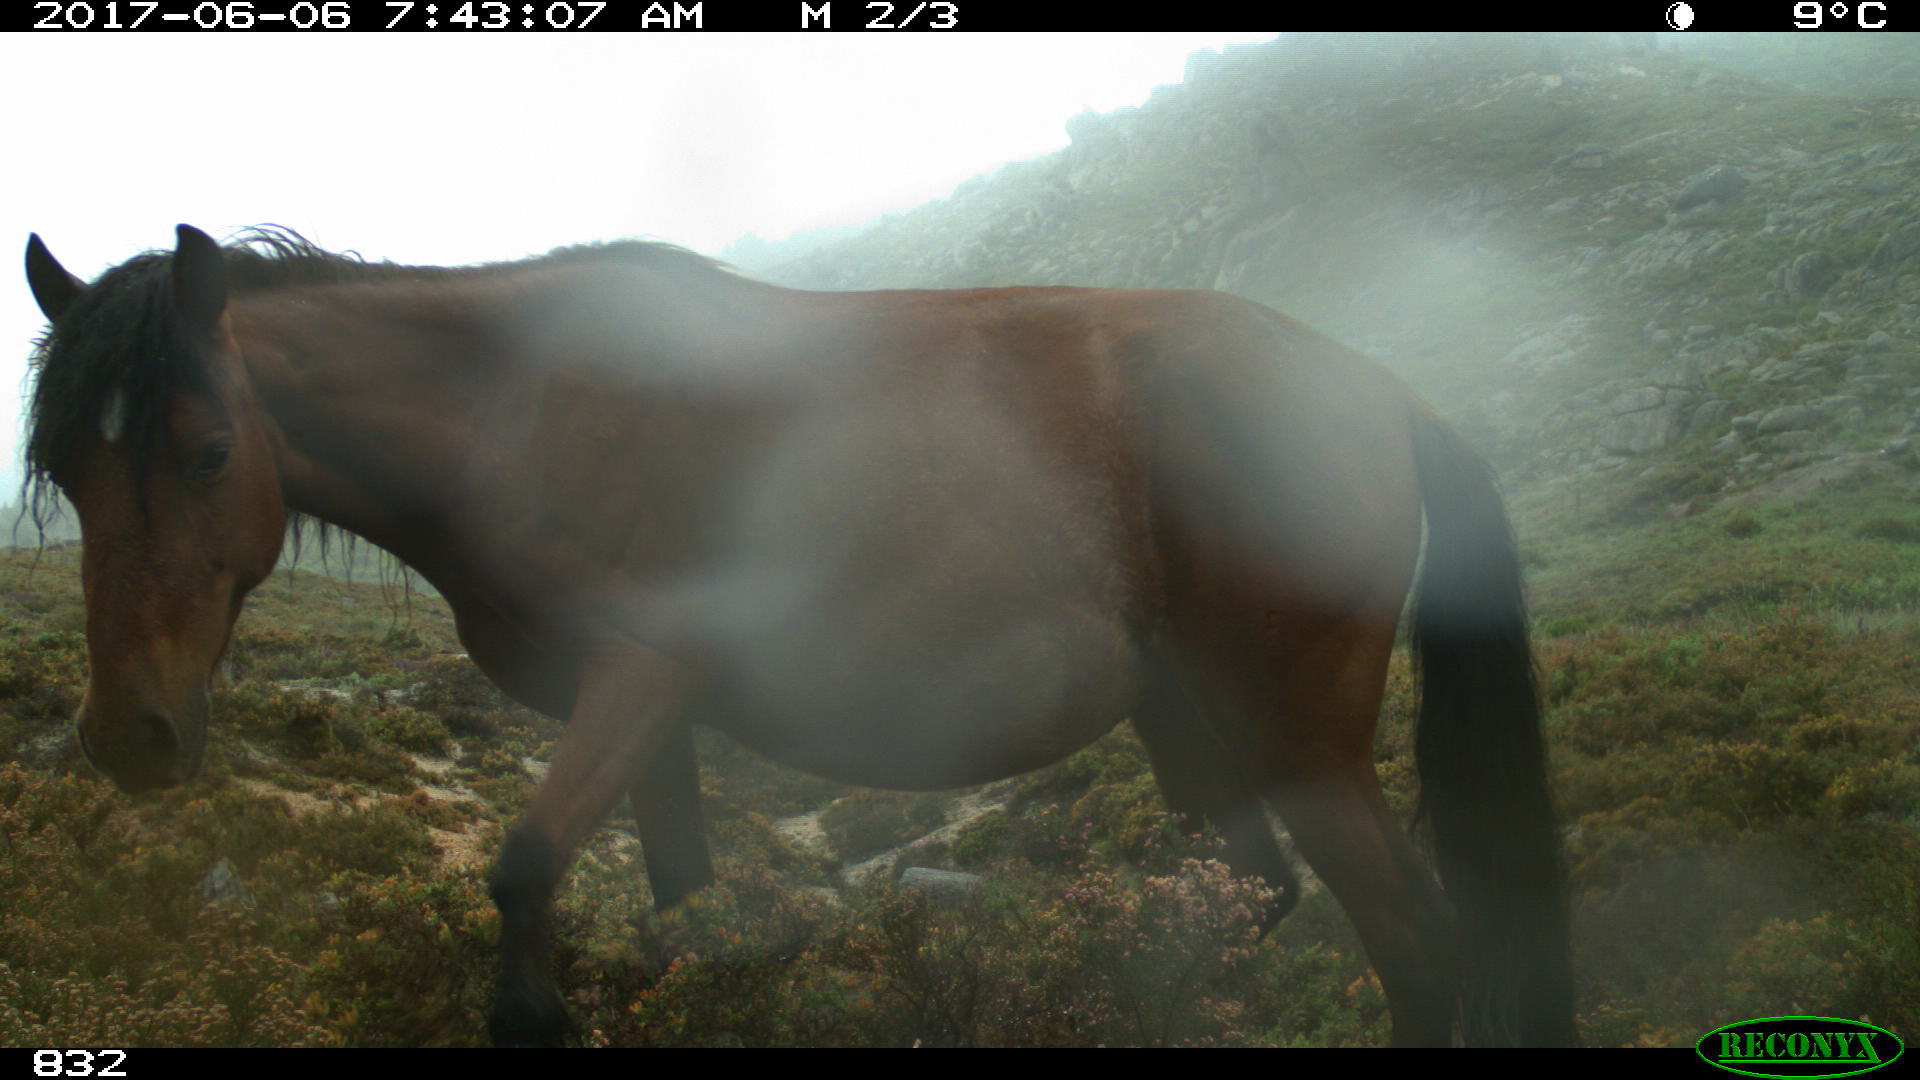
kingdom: Animalia
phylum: Chordata
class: Mammalia
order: Perissodactyla
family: Equidae
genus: Equus
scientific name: Equus caballus
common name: Horse
